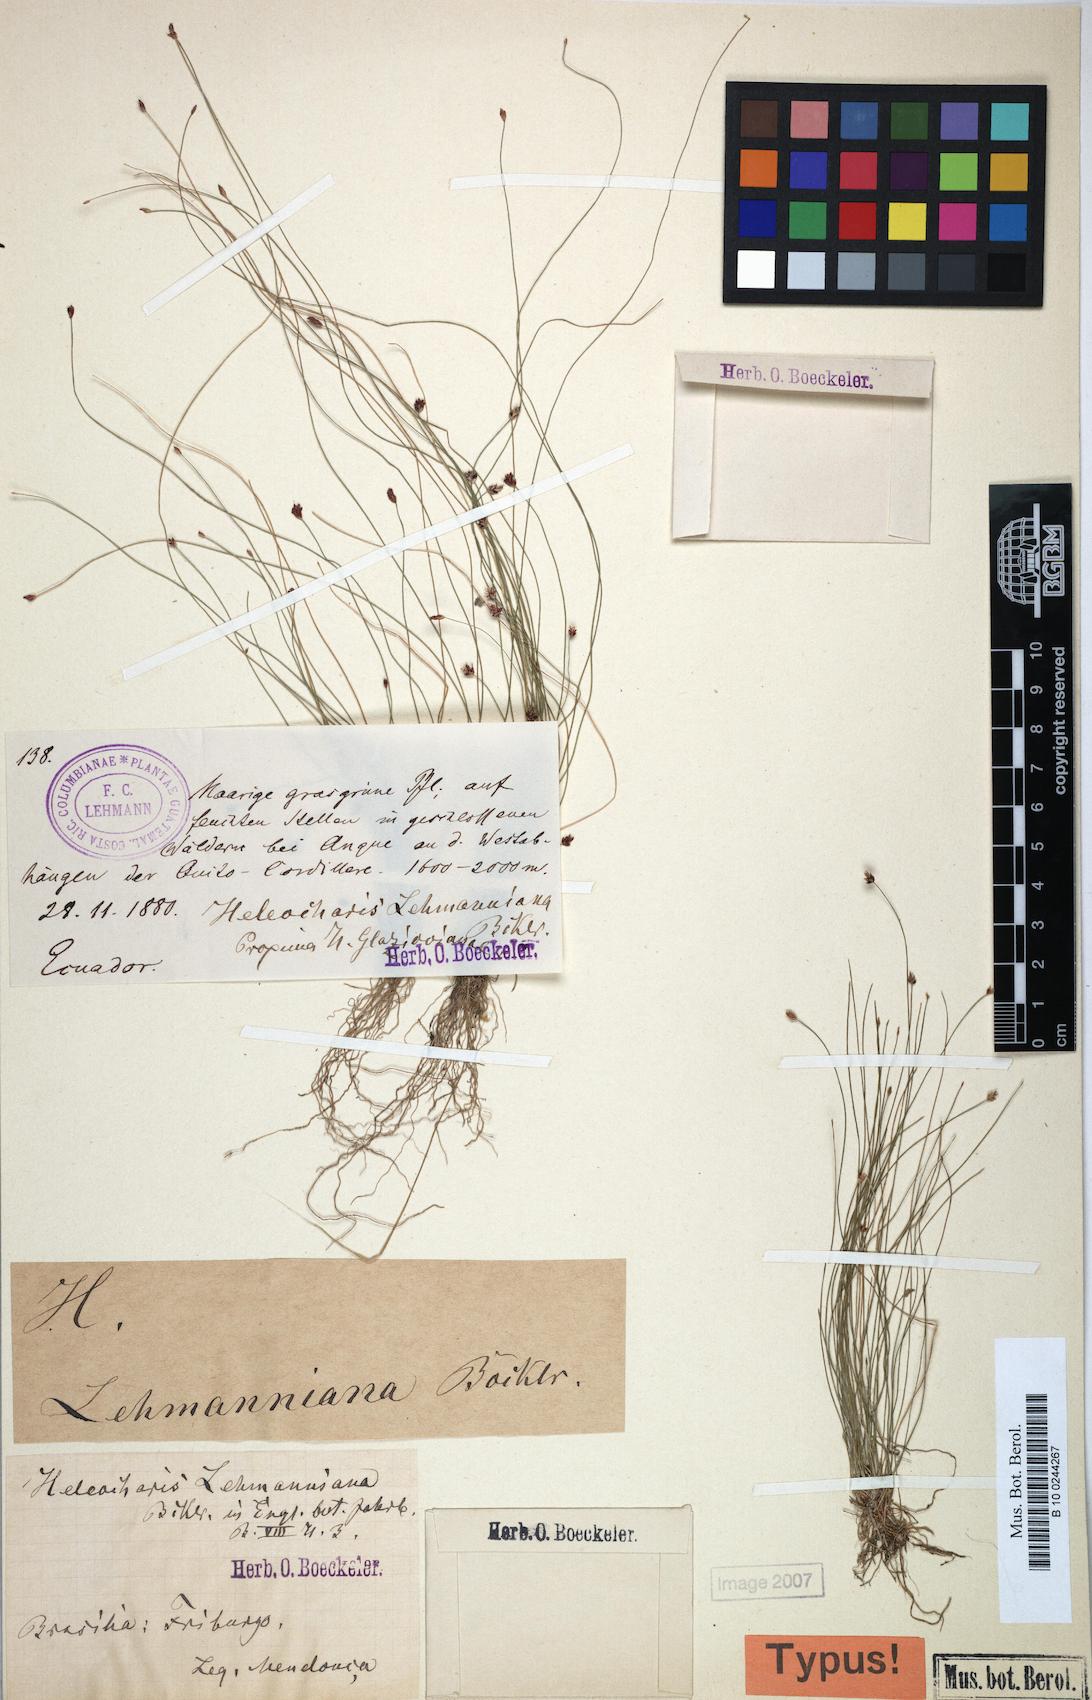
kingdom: Plantae
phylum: Tracheophyta
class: Liliopsida
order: Poales
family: Cyperaceae
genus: Eleocharis
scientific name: Eleocharis maculosa
